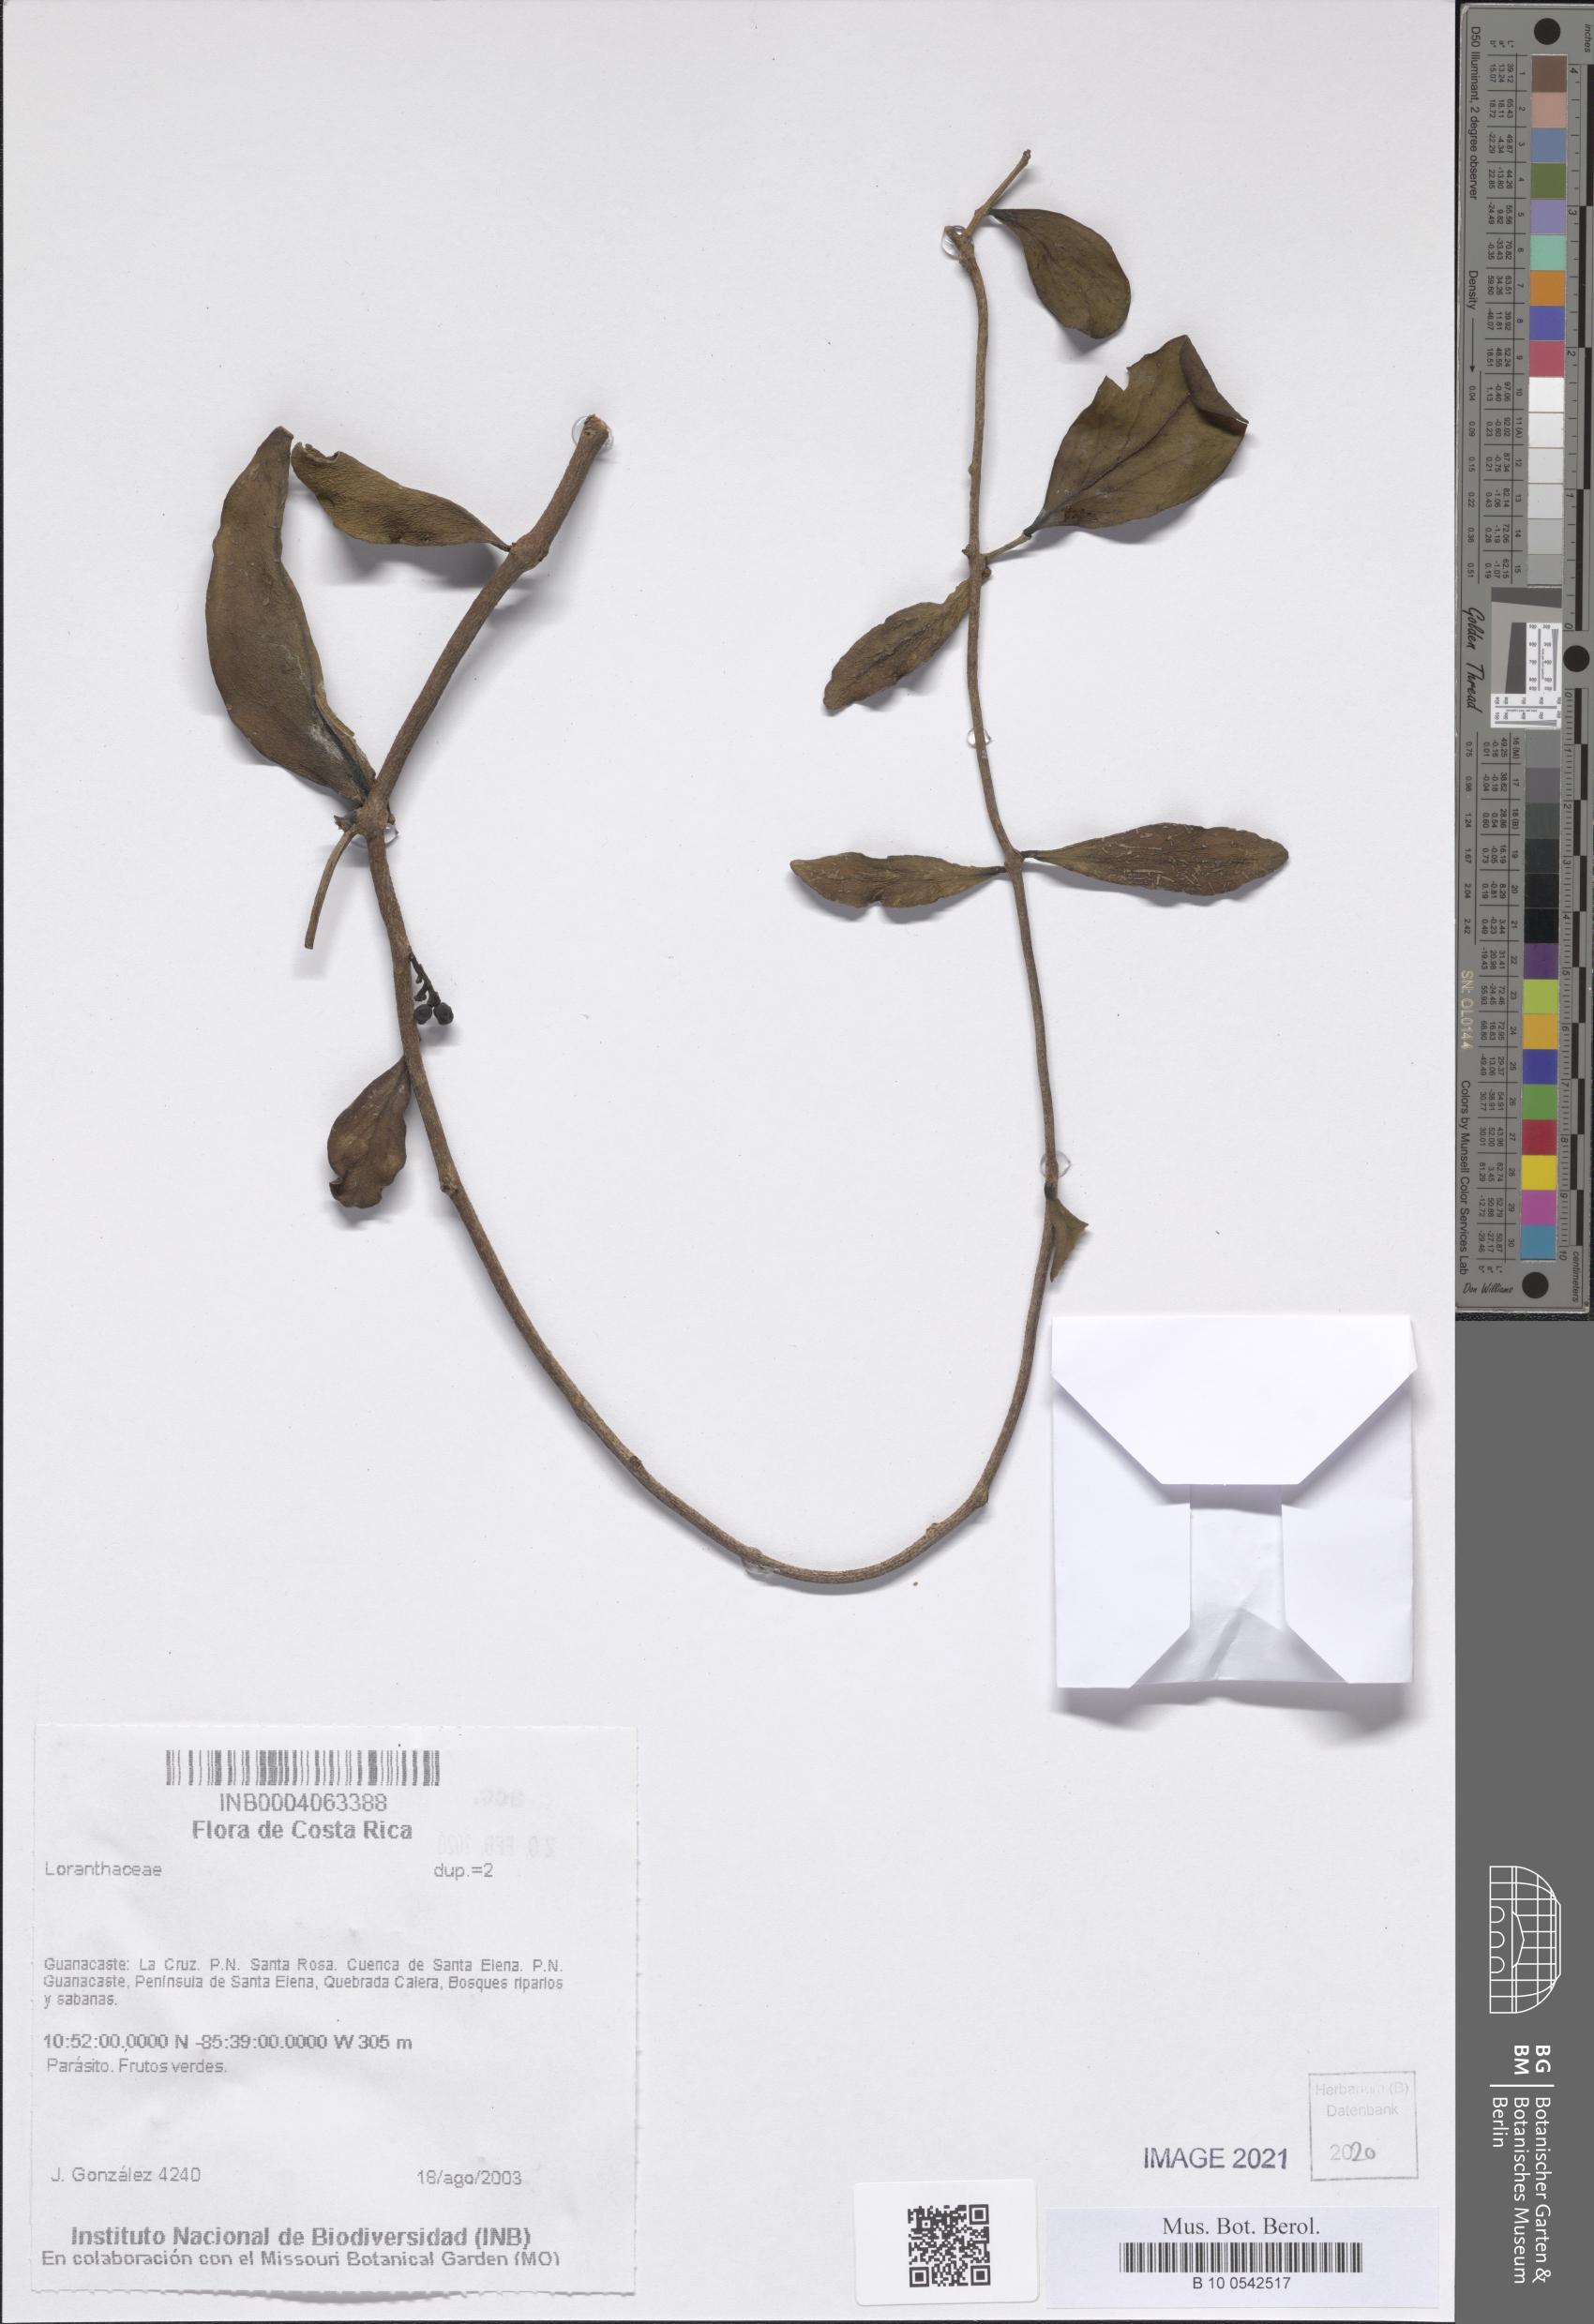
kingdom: Plantae
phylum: Tracheophyta
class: Magnoliopsida
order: Santalales
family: Loranthaceae
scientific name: Loranthaceae
